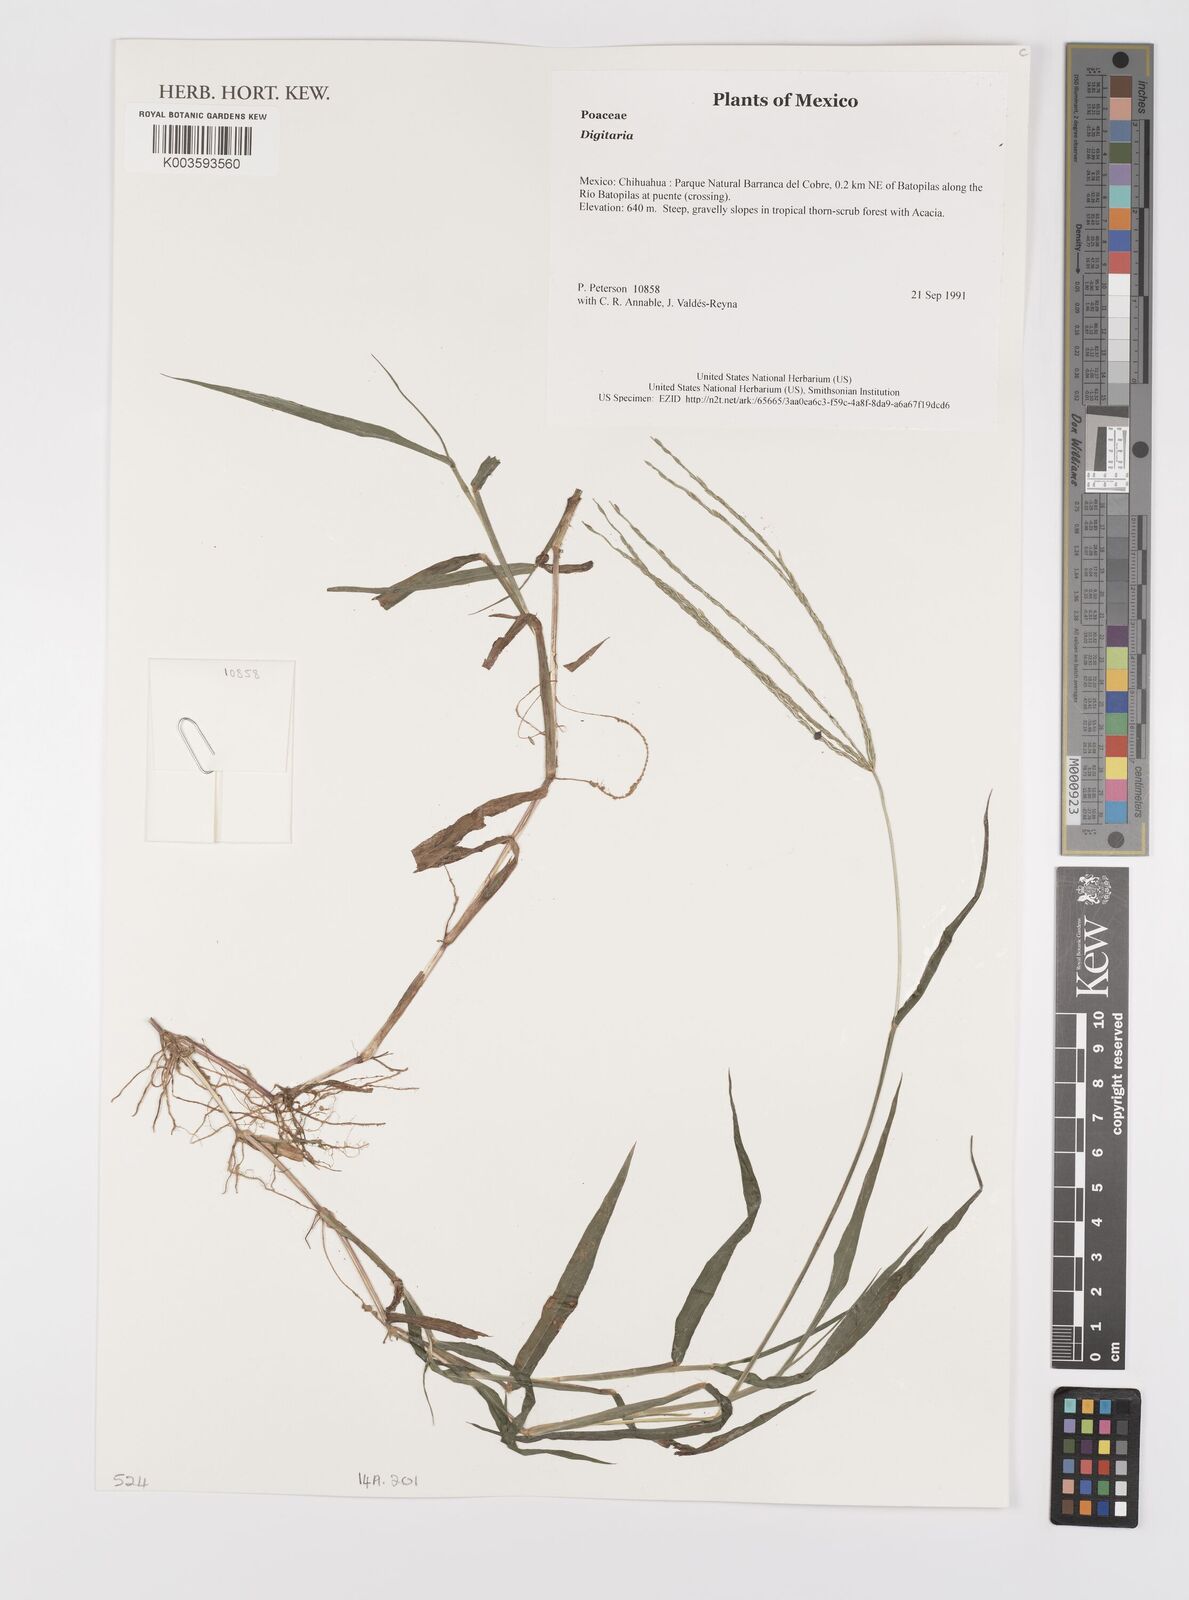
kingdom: Plantae
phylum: Tracheophyta
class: Liliopsida
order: Poales
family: Poaceae
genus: Digitaria
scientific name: Digitaria spec
